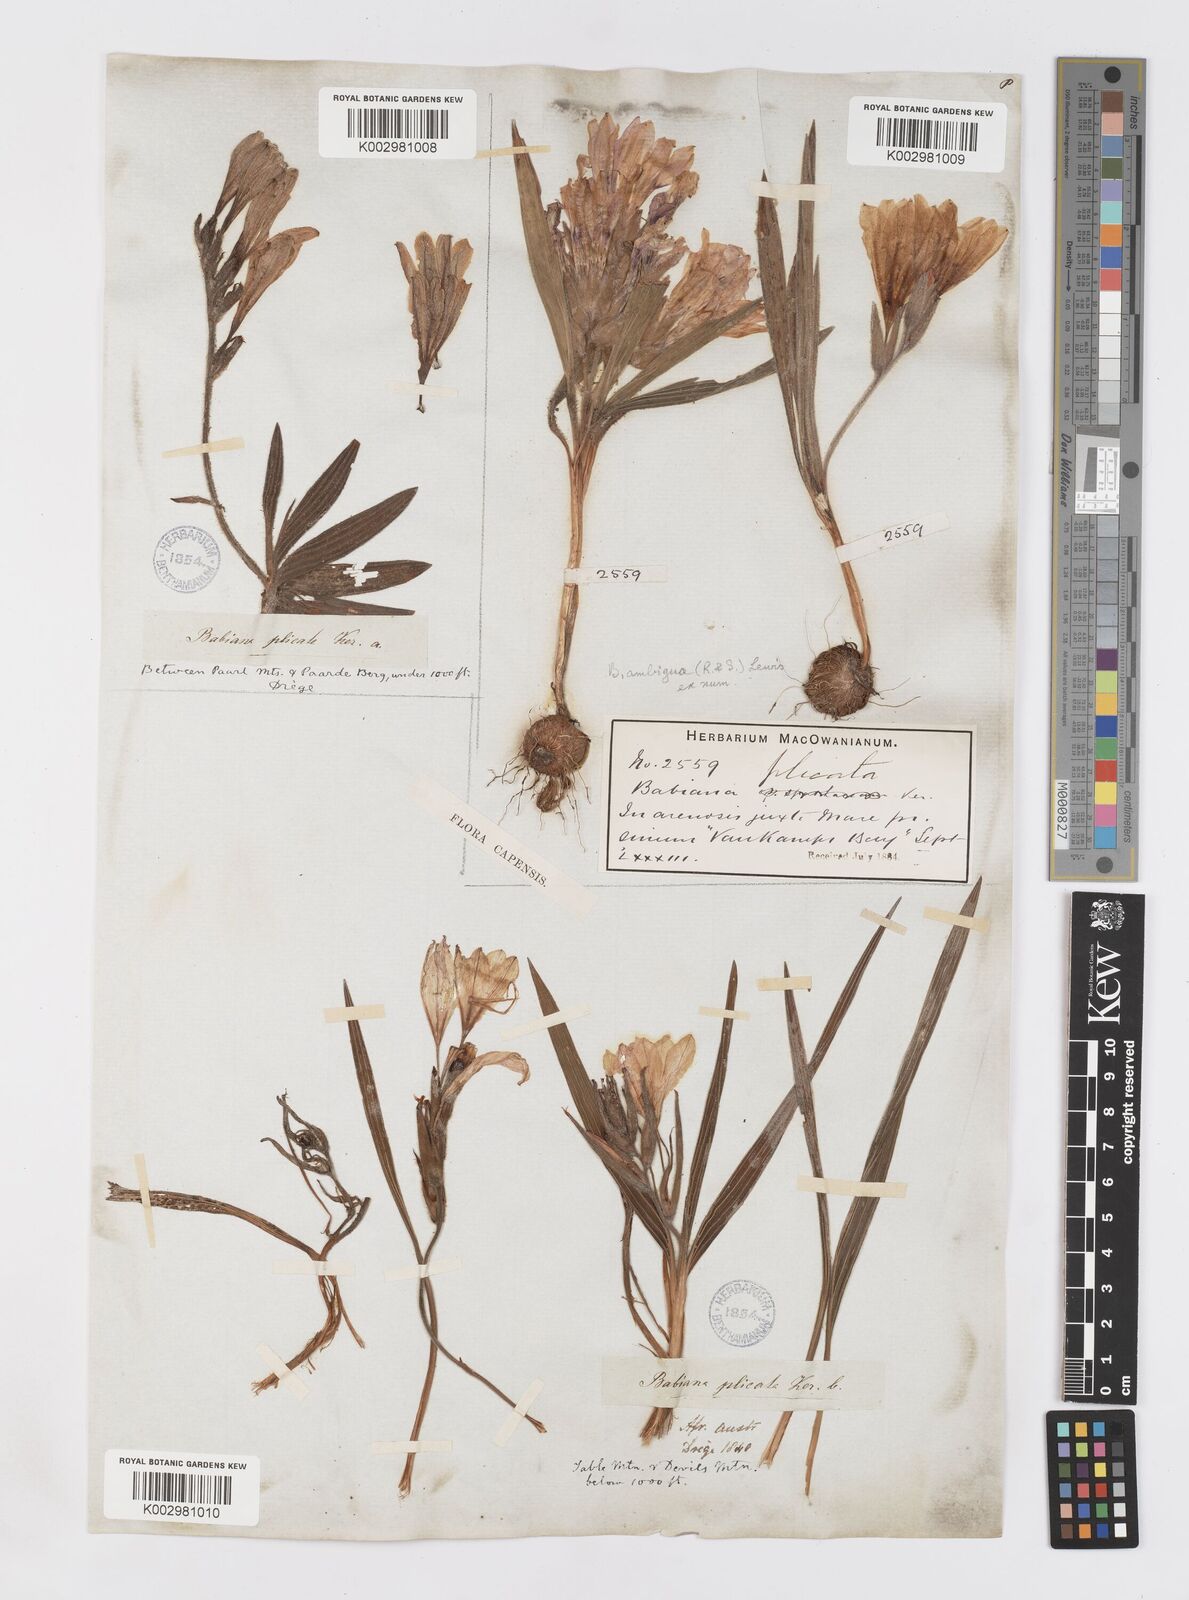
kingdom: Plantae
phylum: Tracheophyta
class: Liliopsida
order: Asparagales
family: Iridaceae
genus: Babiana
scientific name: Babiana ambigua
